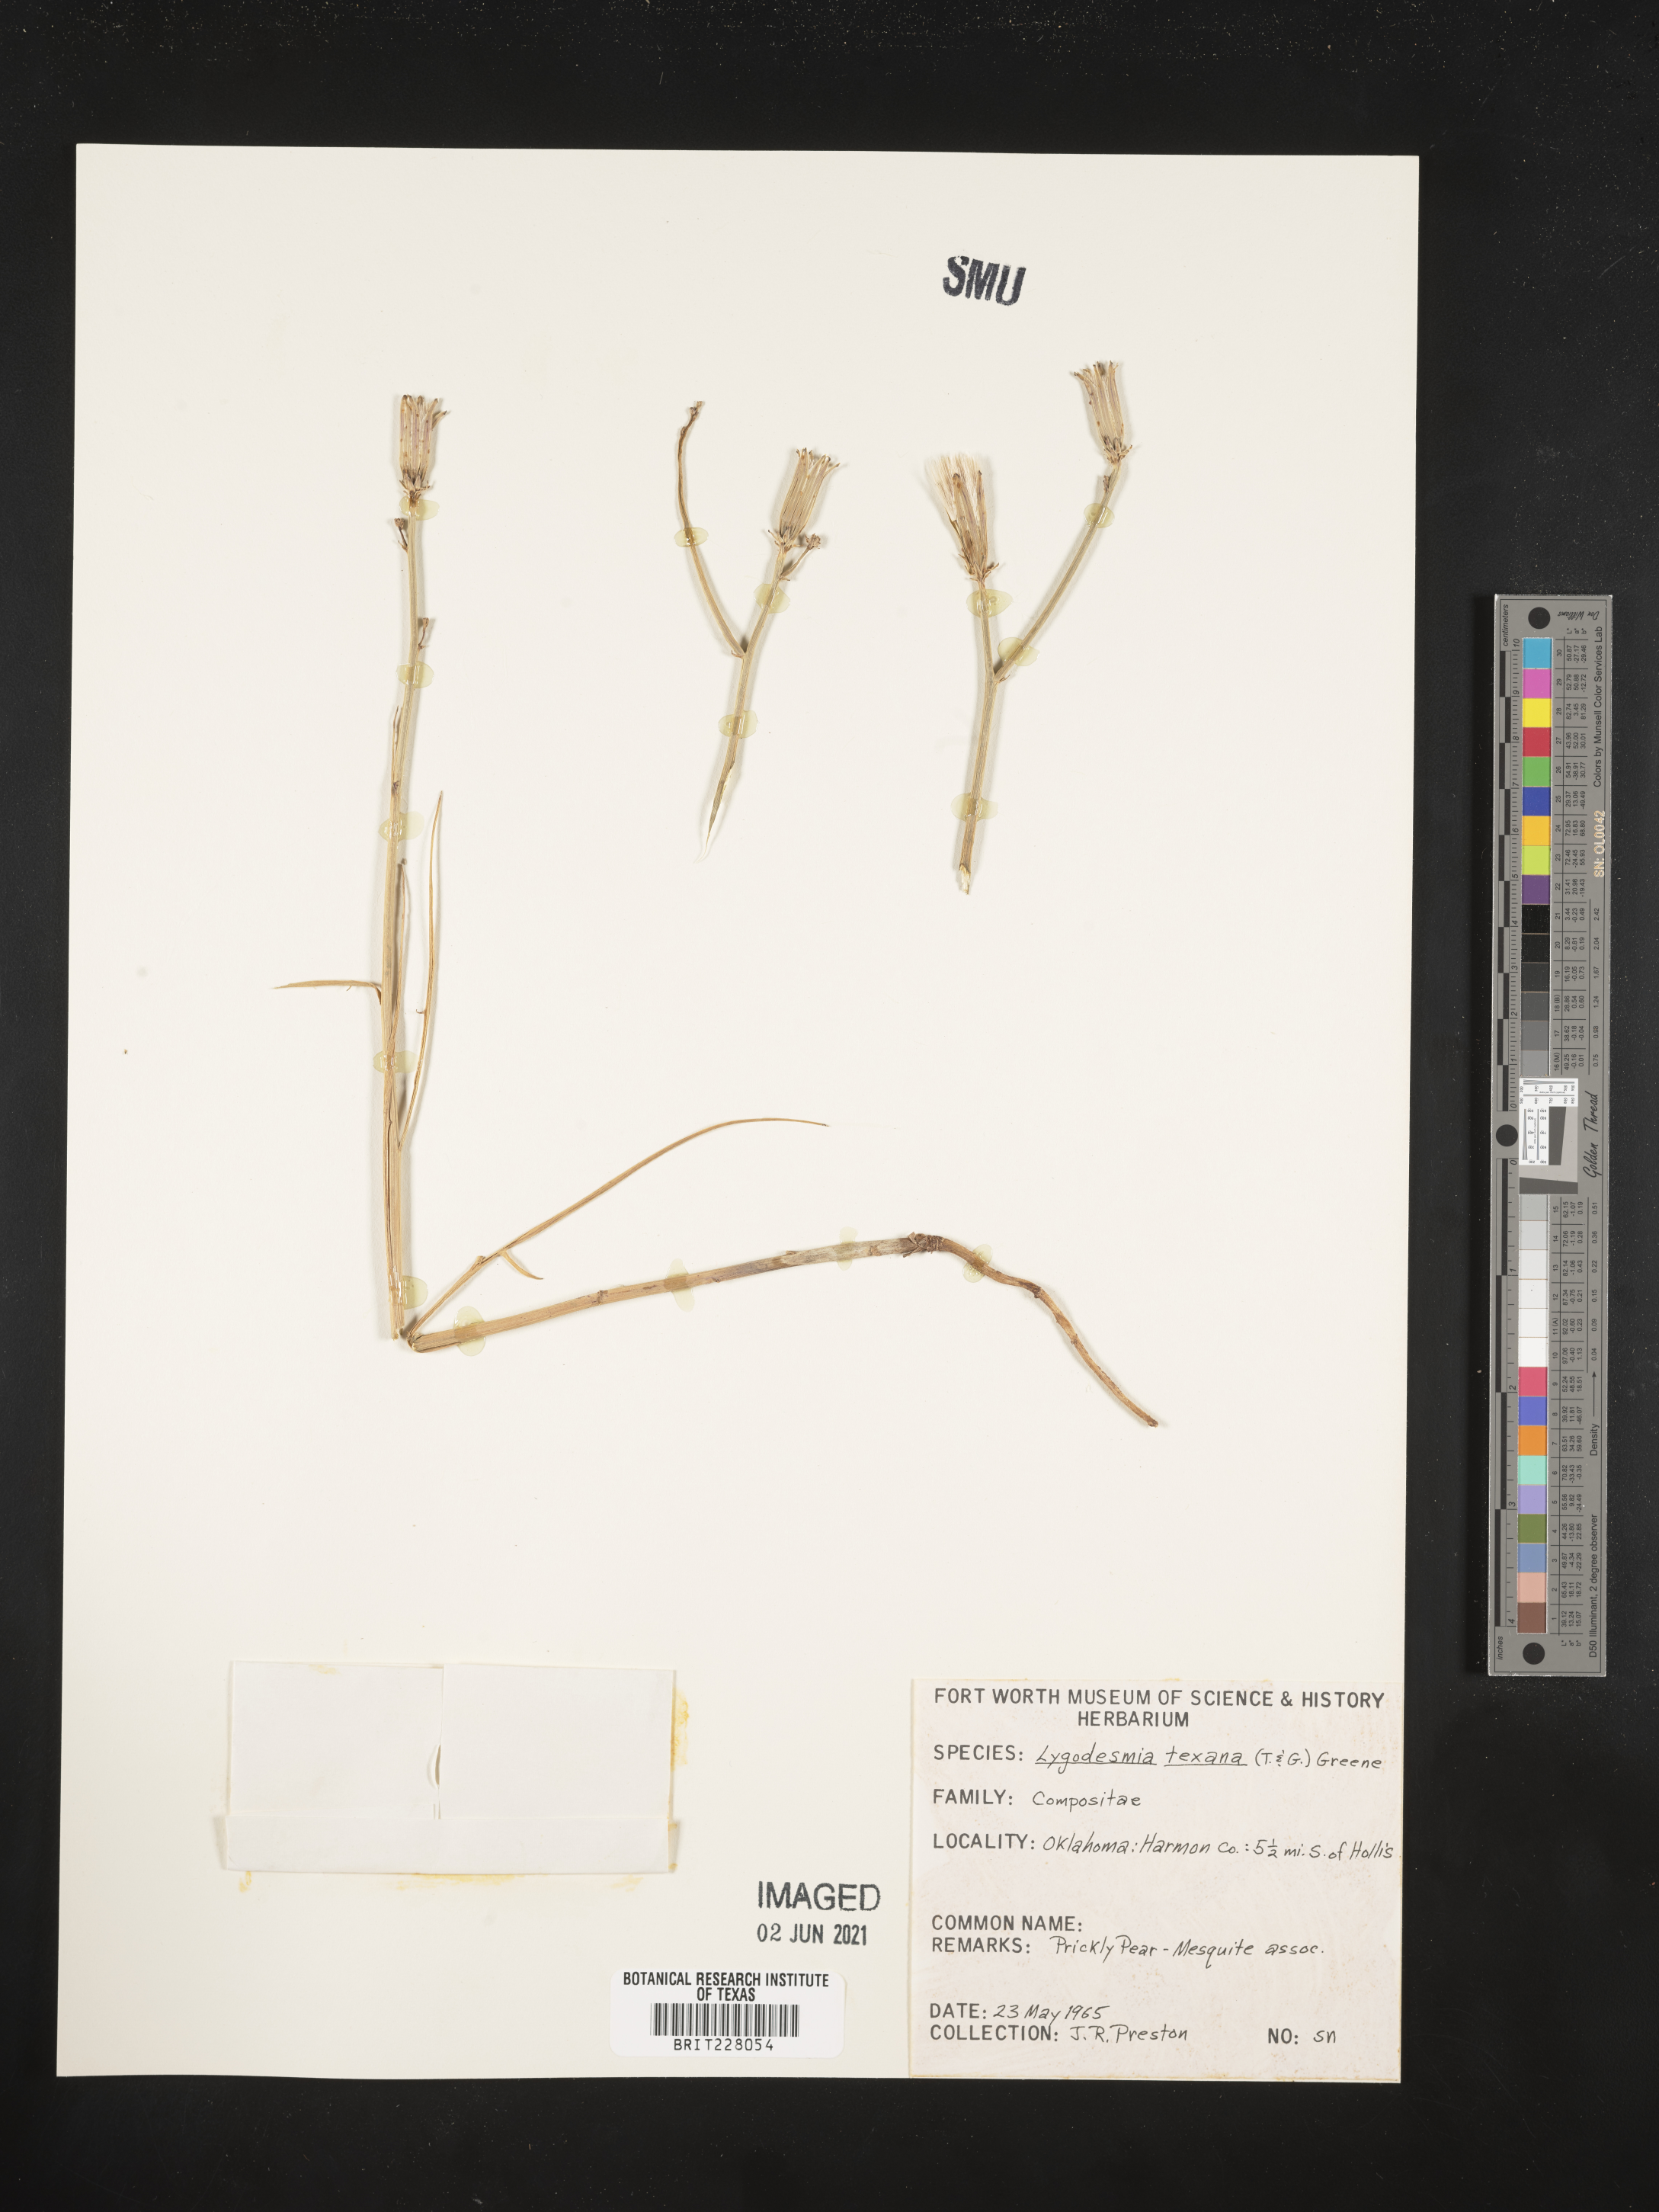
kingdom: Plantae
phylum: Tracheophyta
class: Magnoliopsida
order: Asterales
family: Asteraceae
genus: Lygodesmia
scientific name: Lygodesmia texana
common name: Texas skeleton-plant
